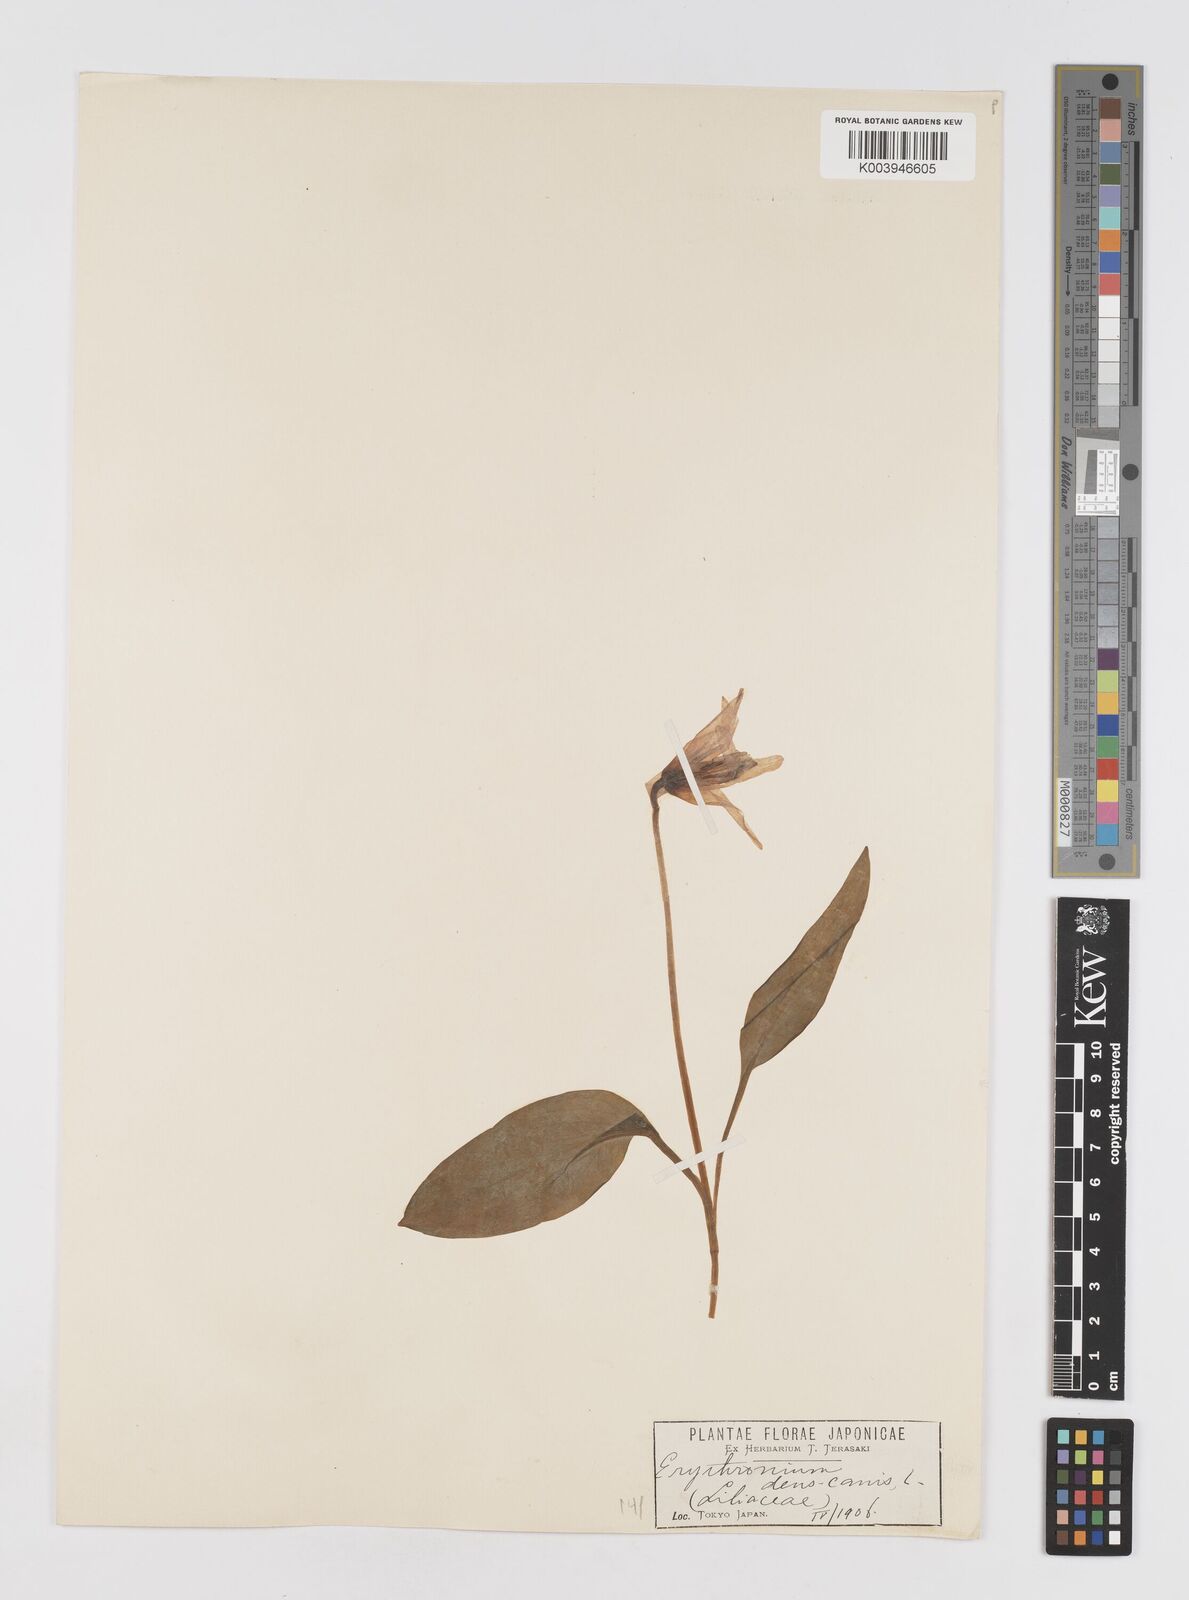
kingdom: Plantae
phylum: Tracheophyta
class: Liliopsida
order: Liliales
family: Liliaceae
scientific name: Liliaceae
